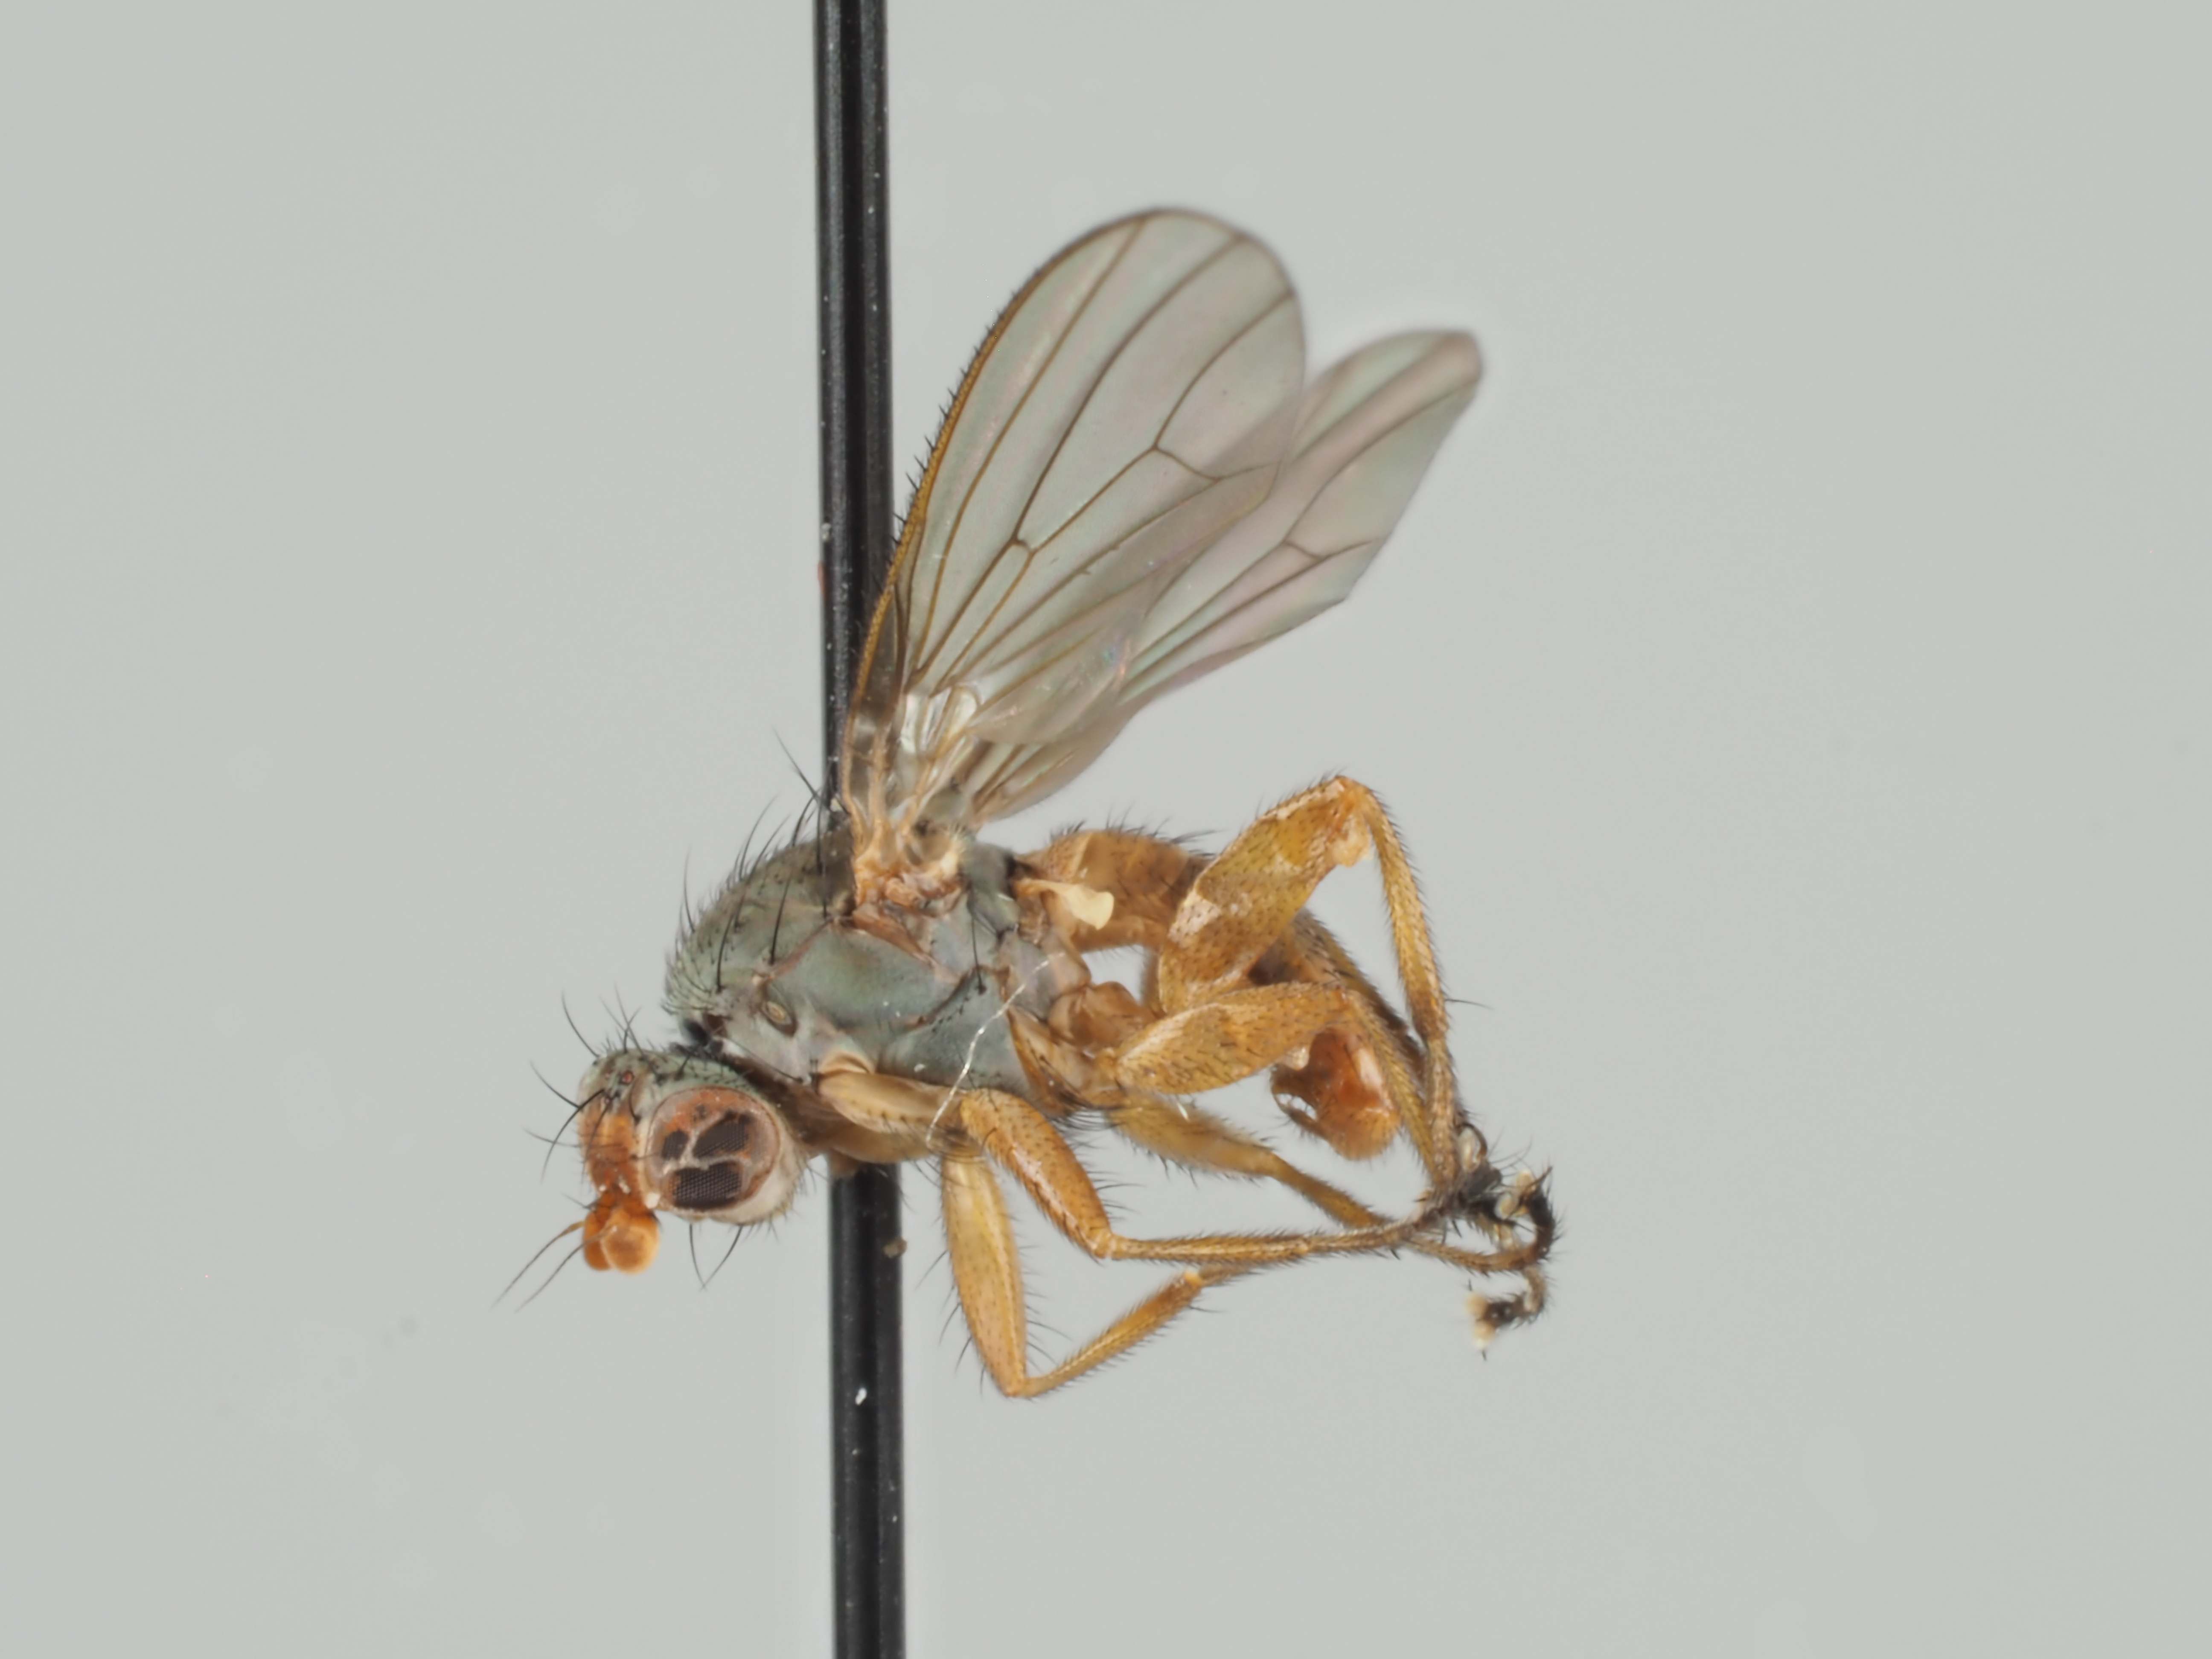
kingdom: Animalia
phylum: Arthropoda
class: Insecta
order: Diptera
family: Heleomyzidae
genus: Neoleria
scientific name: Neoleria ruficeps
